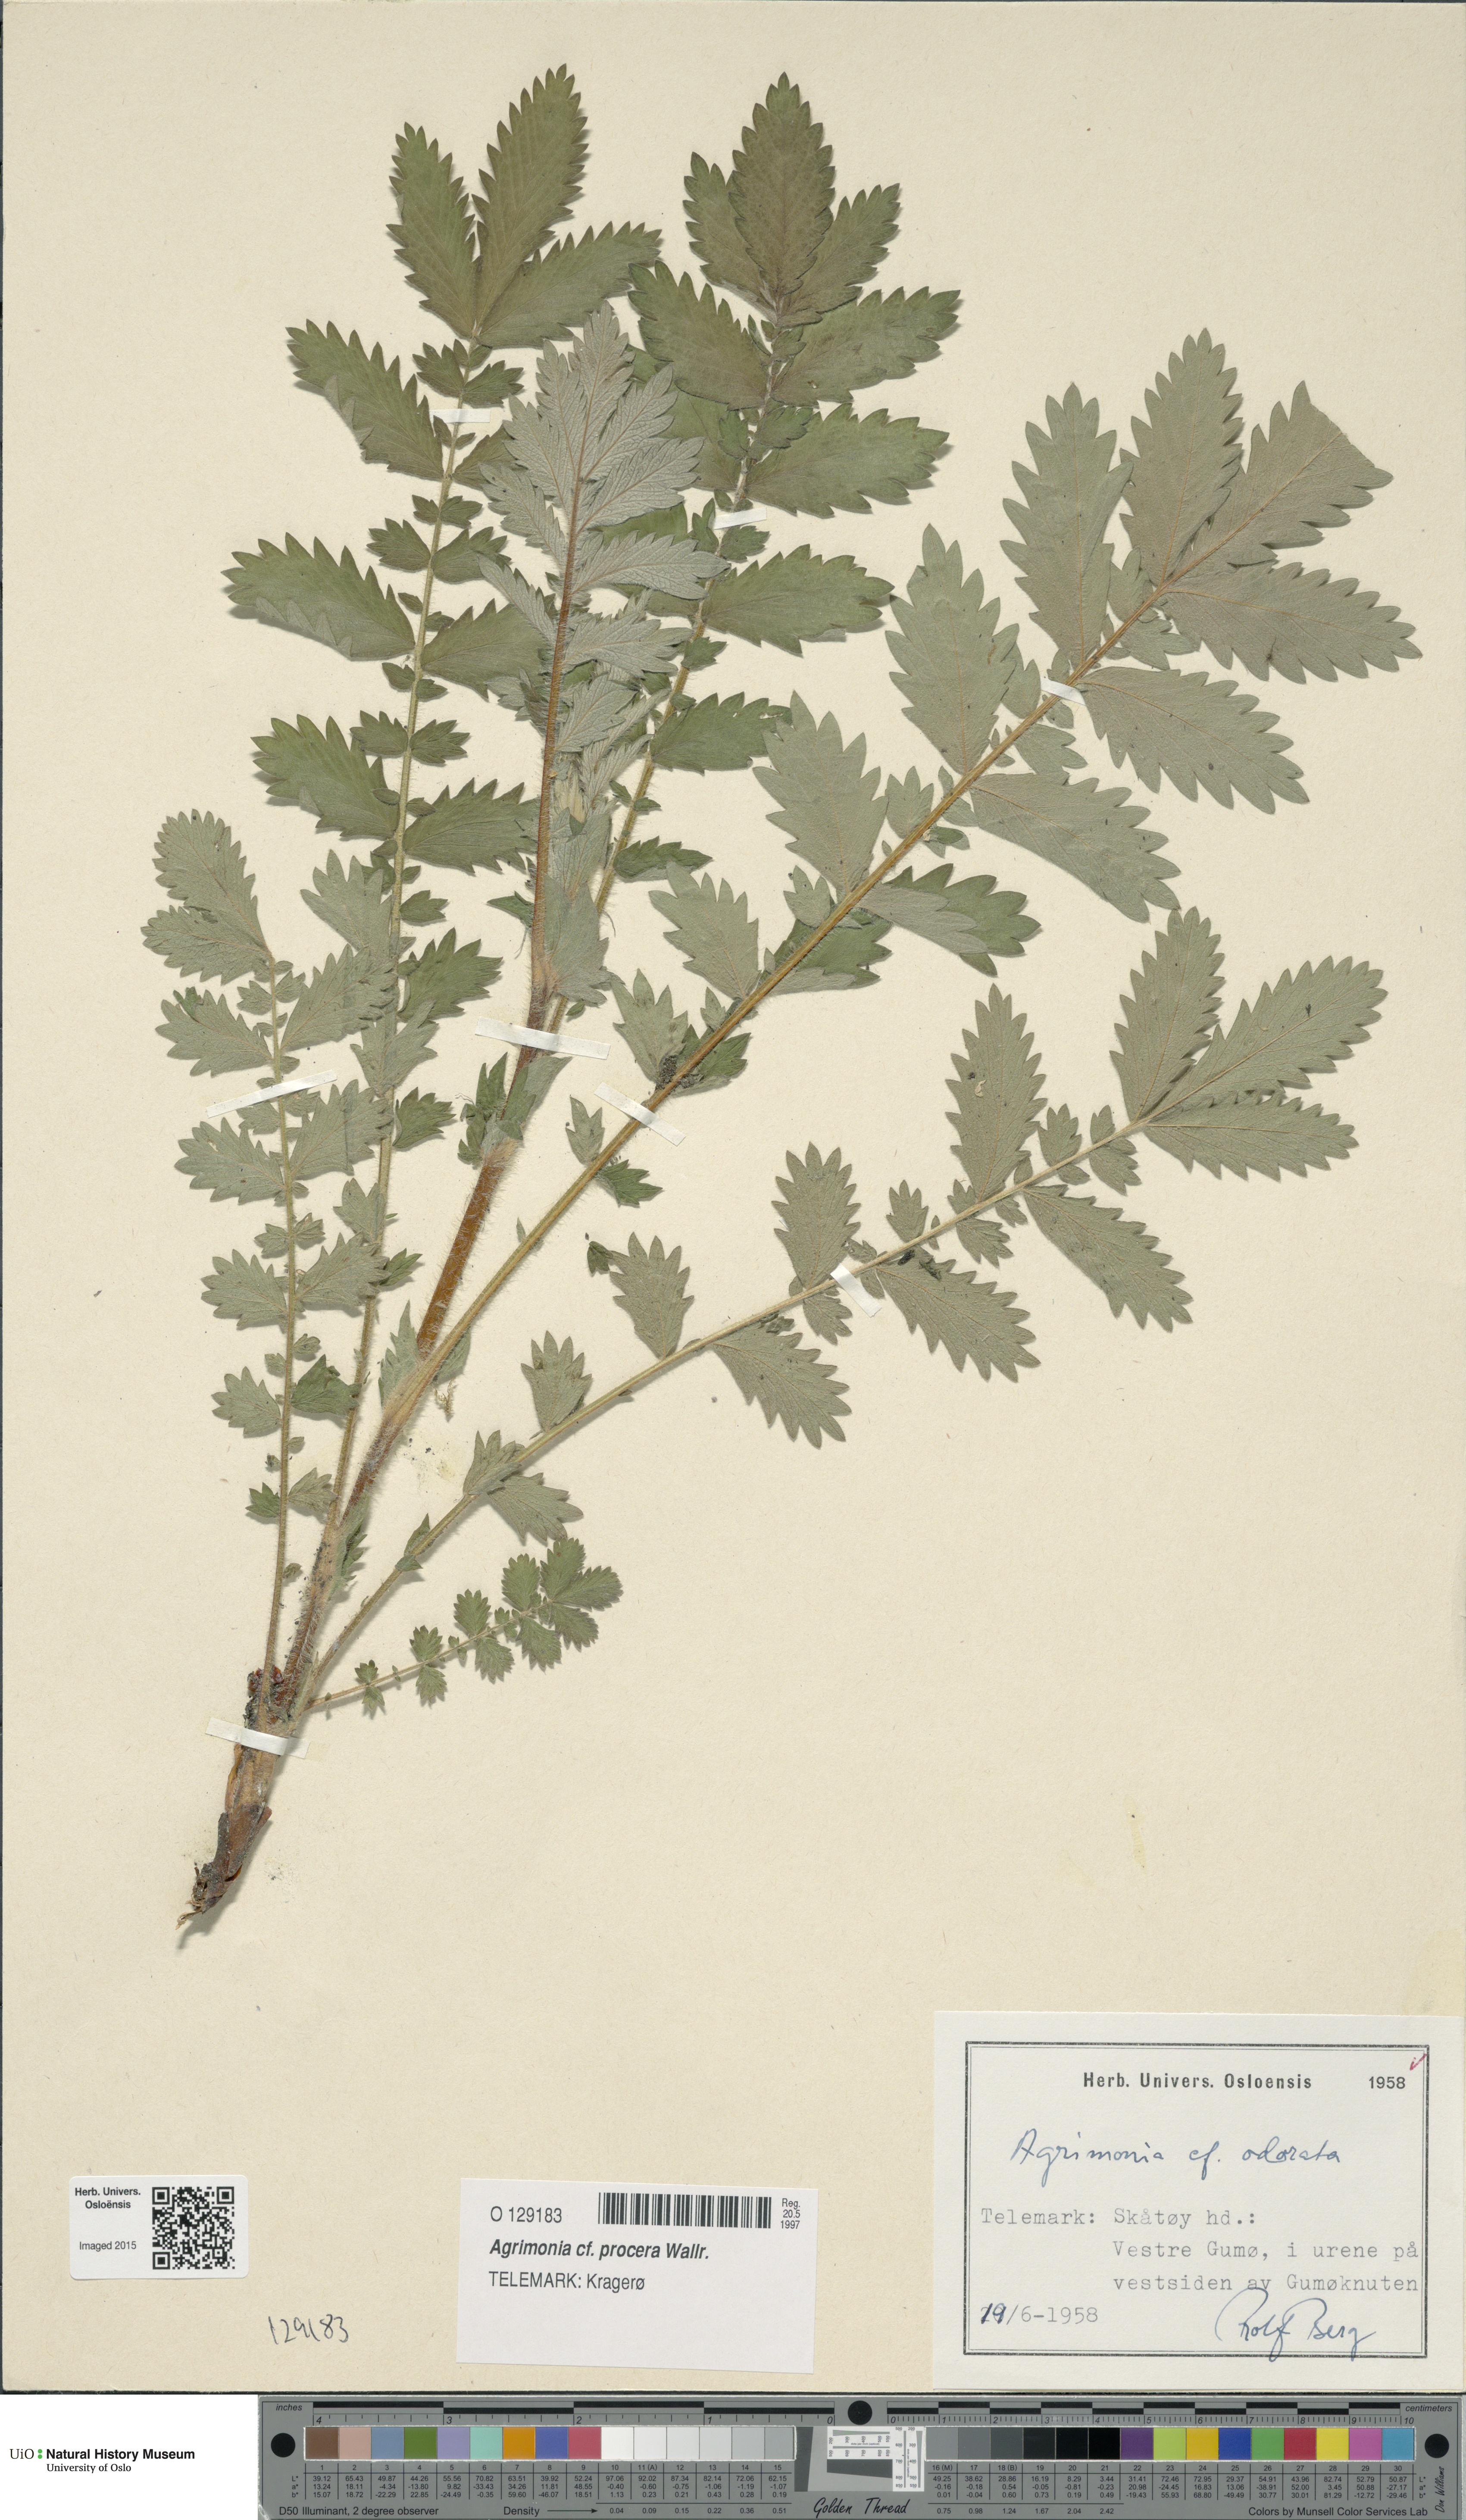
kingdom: Plantae
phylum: Tracheophyta
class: Magnoliopsida
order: Rosales
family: Rosaceae
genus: Agrimonia
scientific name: Agrimonia procera
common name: Fragrant agrimony
